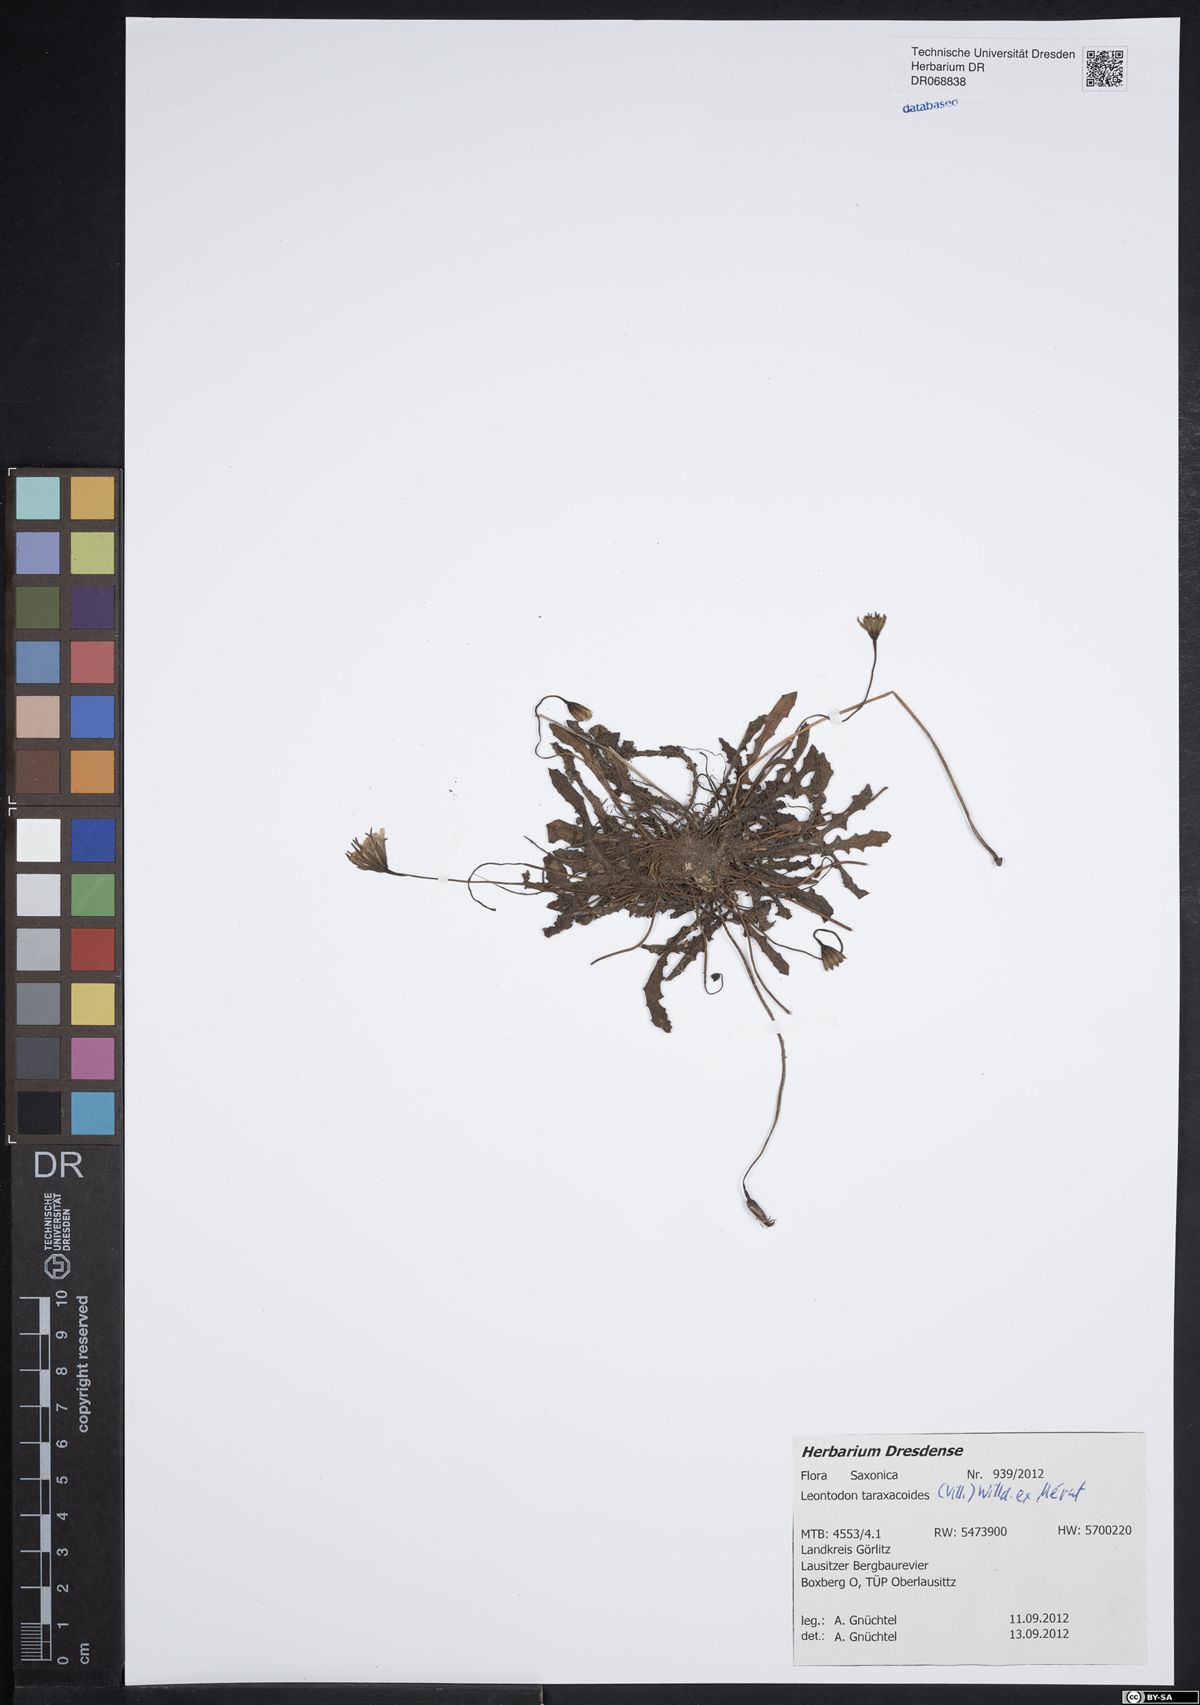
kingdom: Plantae
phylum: Tracheophyta
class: Magnoliopsida
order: Asterales
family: Asteraceae
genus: Thrincia
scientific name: Thrincia saxatilis
